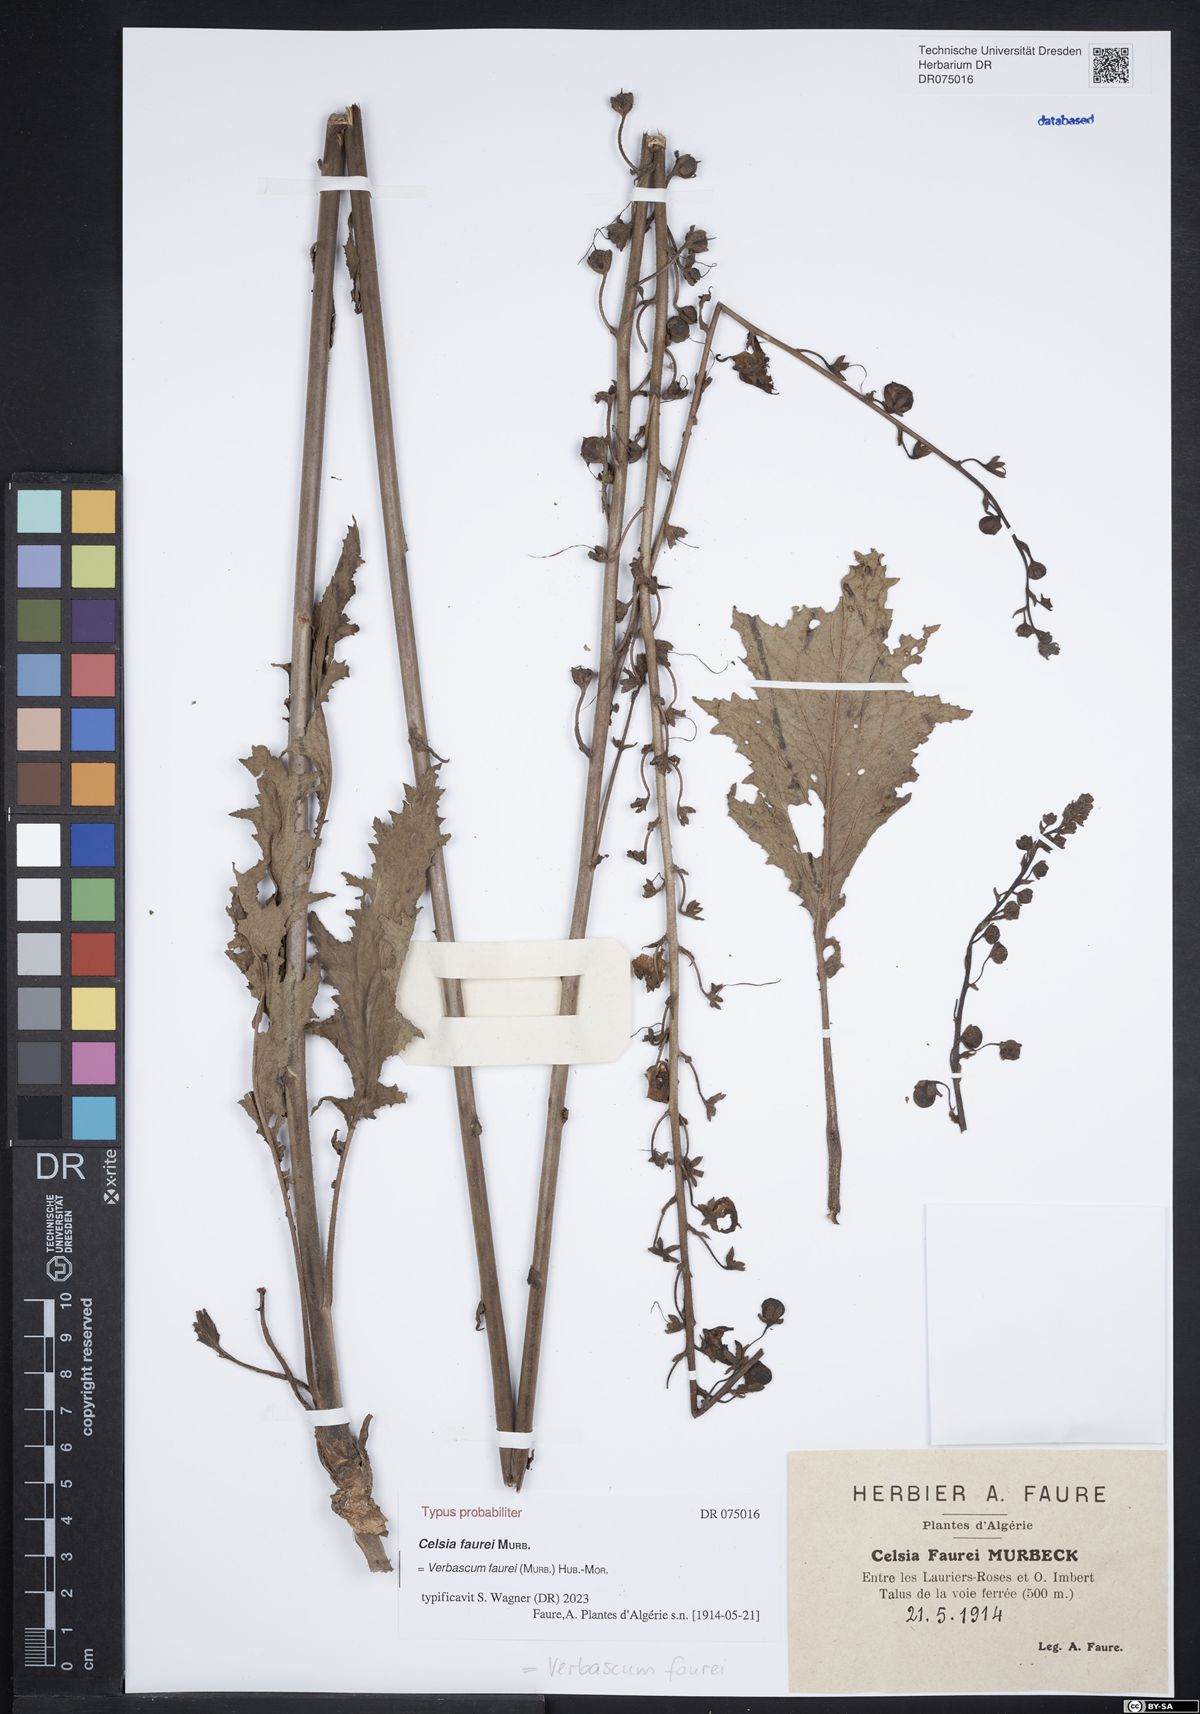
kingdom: Plantae
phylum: Tracheophyta
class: Magnoliopsida
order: Lamiales
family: Scrophulariaceae
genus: Verbascum
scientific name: Verbascum faurei
